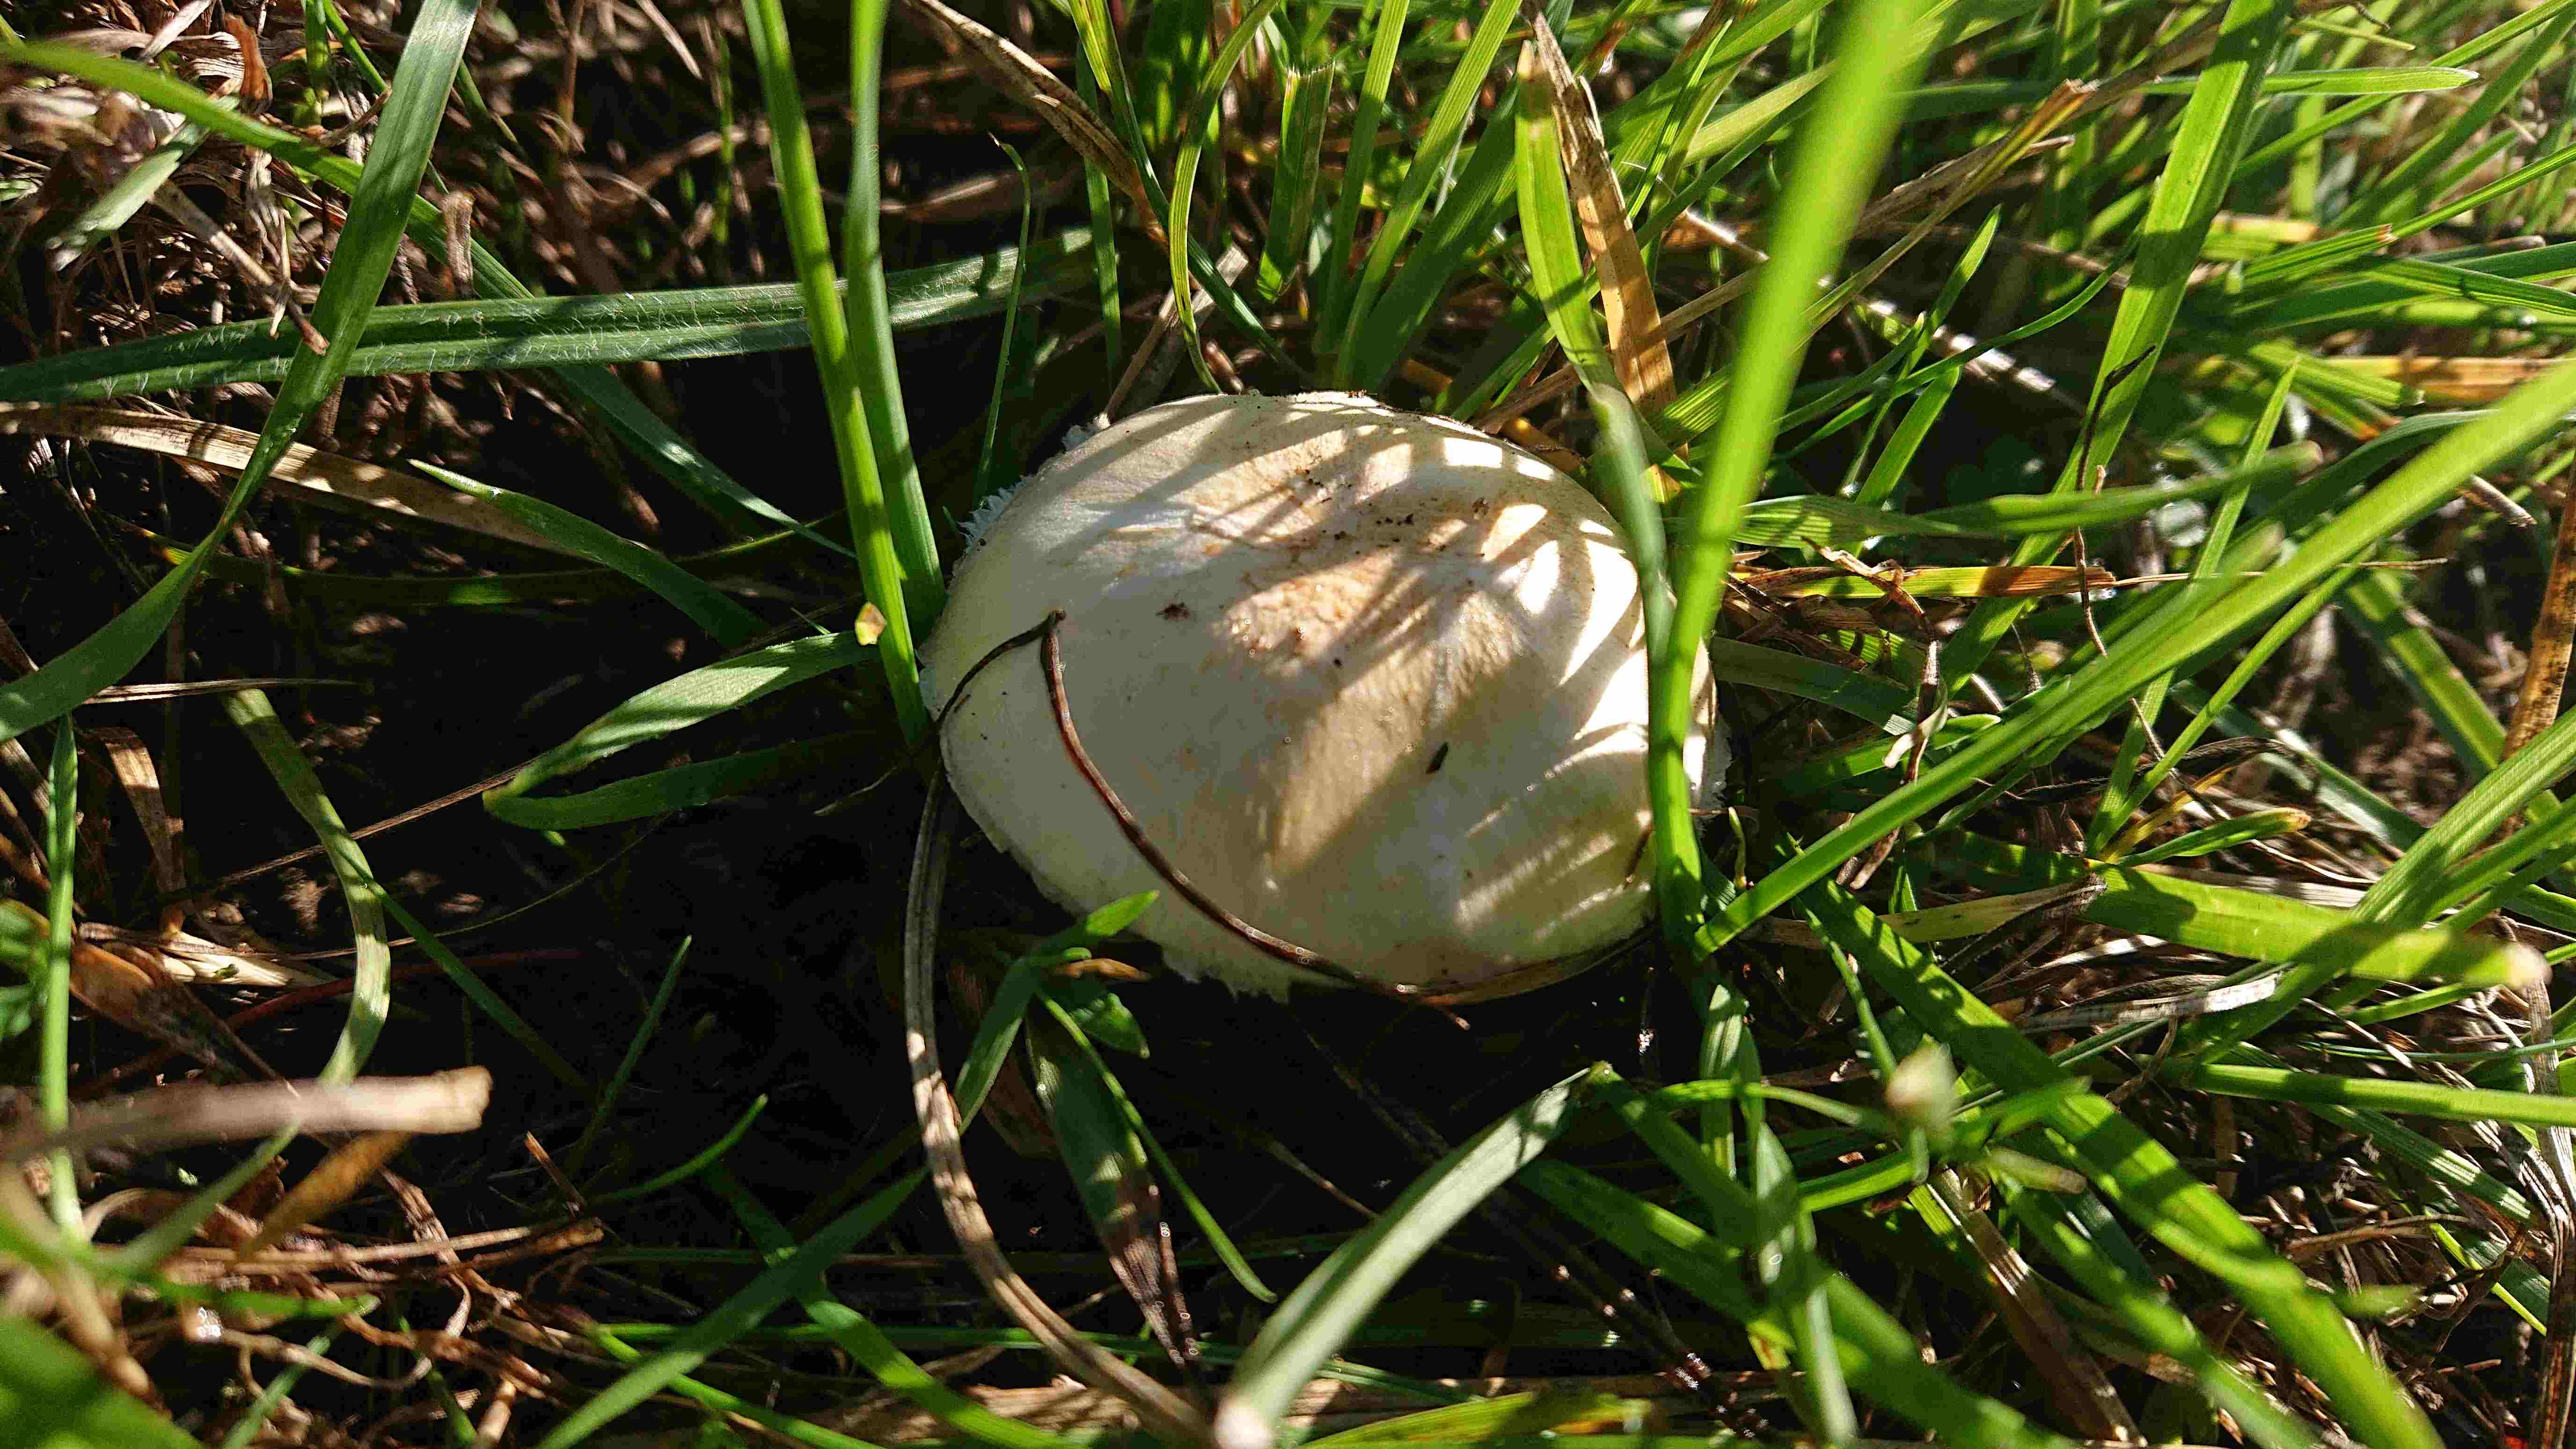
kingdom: Fungi
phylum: Basidiomycota
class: Agaricomycetes
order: Agaricales
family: Agaricaceae
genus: Agaricus
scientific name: Agaricus
